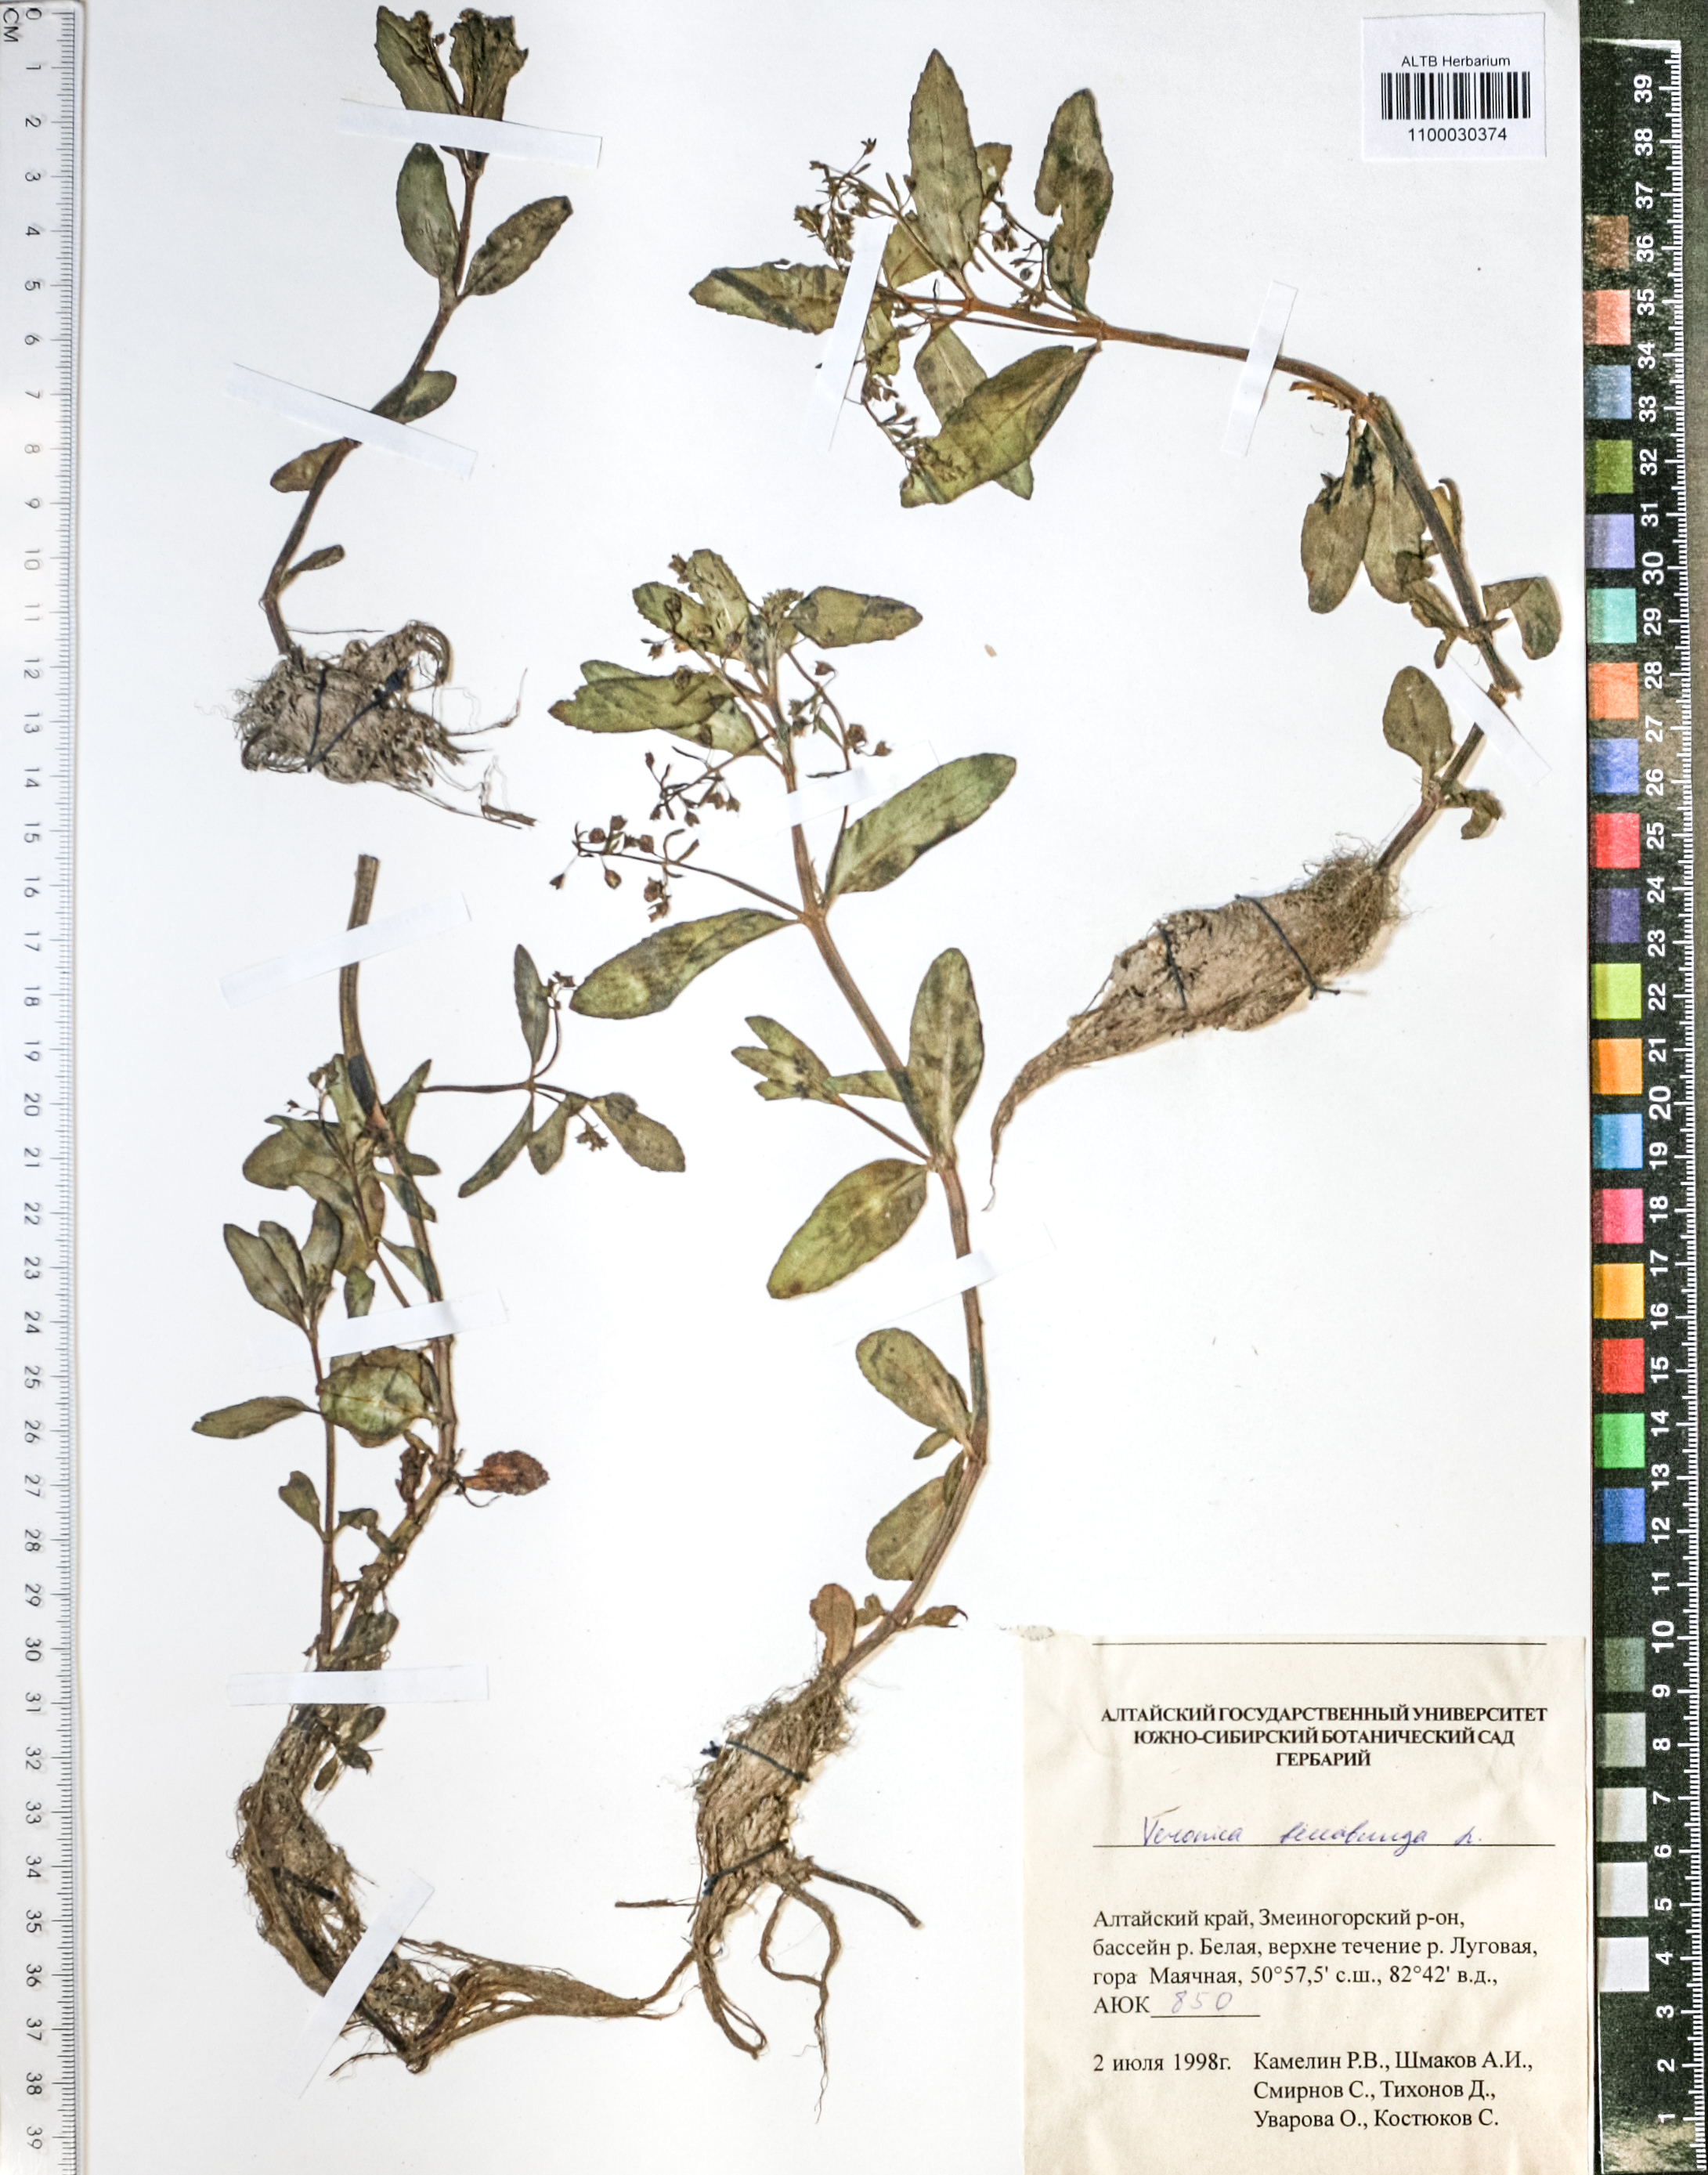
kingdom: Plantae
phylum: Tracheophyta
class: Magnoliopsida
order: Lamiales
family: Plantaginaceae
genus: Veronica
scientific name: Veronica beccabunga
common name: Brooklime
